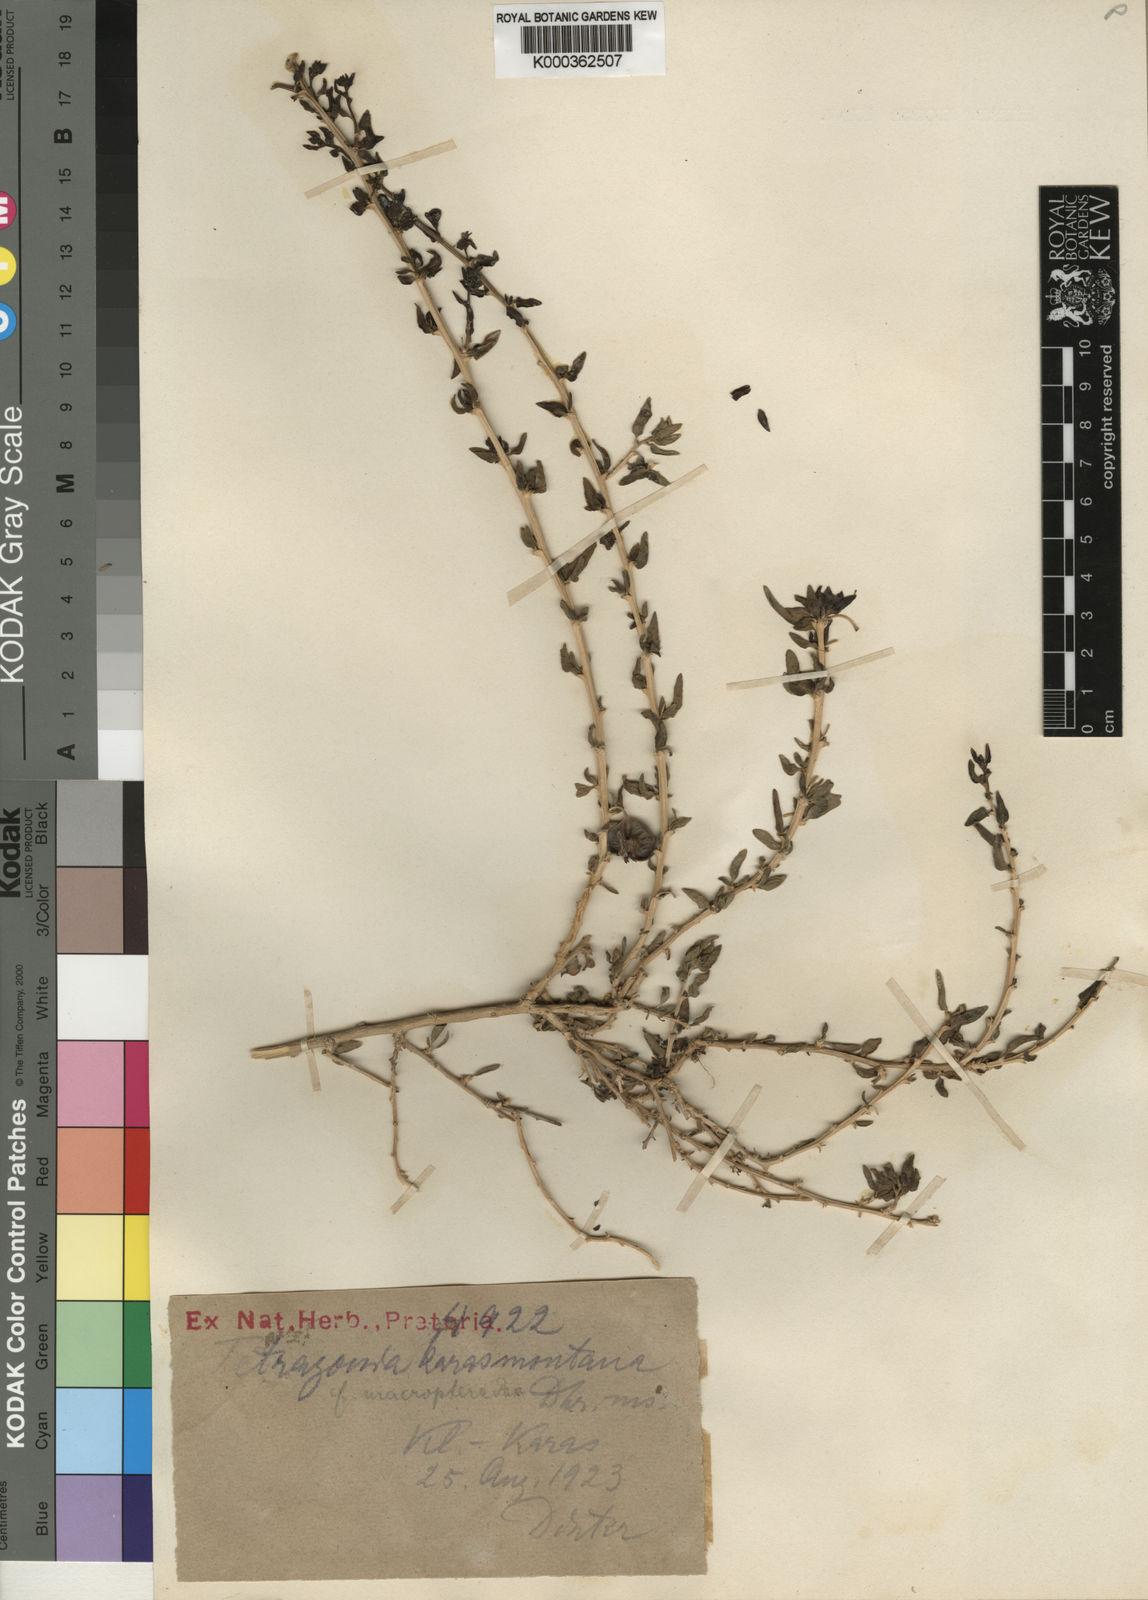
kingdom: Plantae
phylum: Tracheophyta
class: Magnoliopsida
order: Caryophyllales
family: Aizoaceae
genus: Tetragonia
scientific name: Tetragonia
